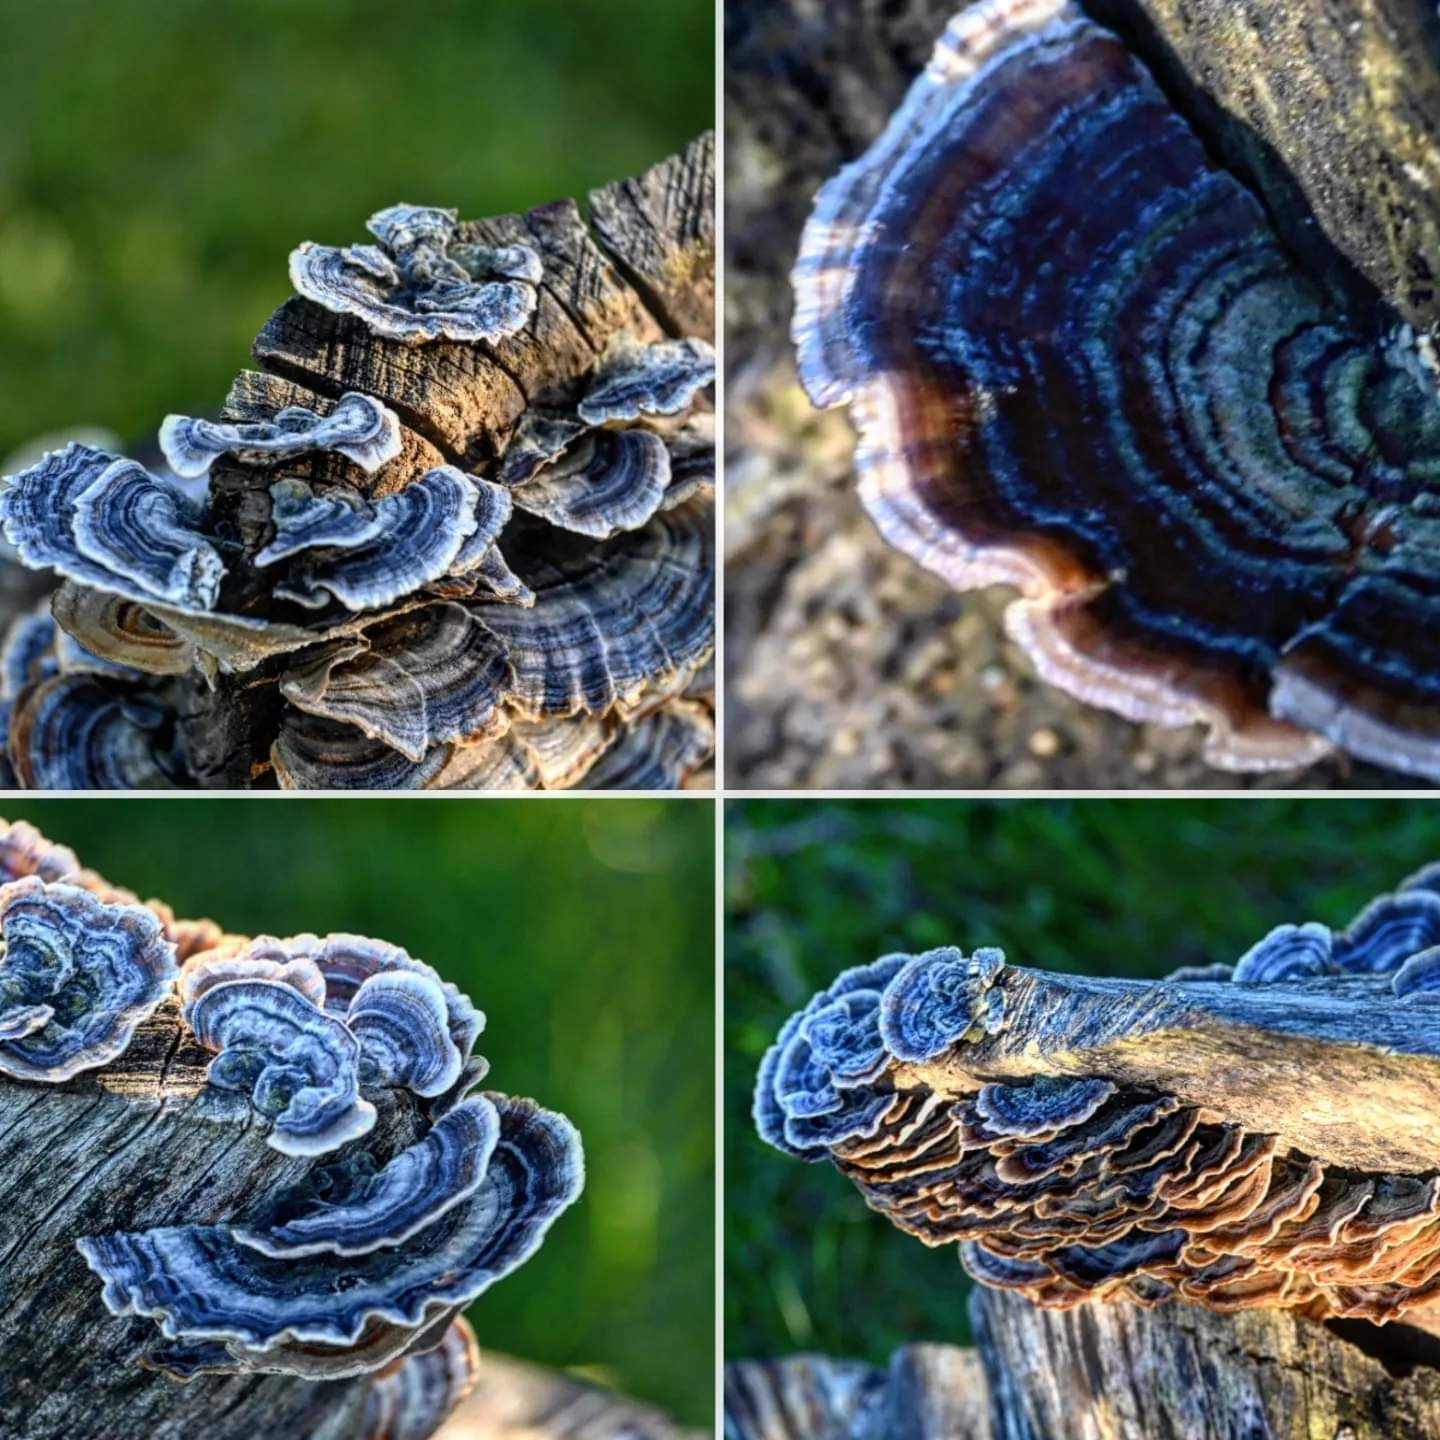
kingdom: Fungi
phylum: Basidiomycota
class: Agaricomycetes
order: Polyporales
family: Polyporaceae
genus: Trametes
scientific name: Trametes versicolor
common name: broget læderporesvamp
